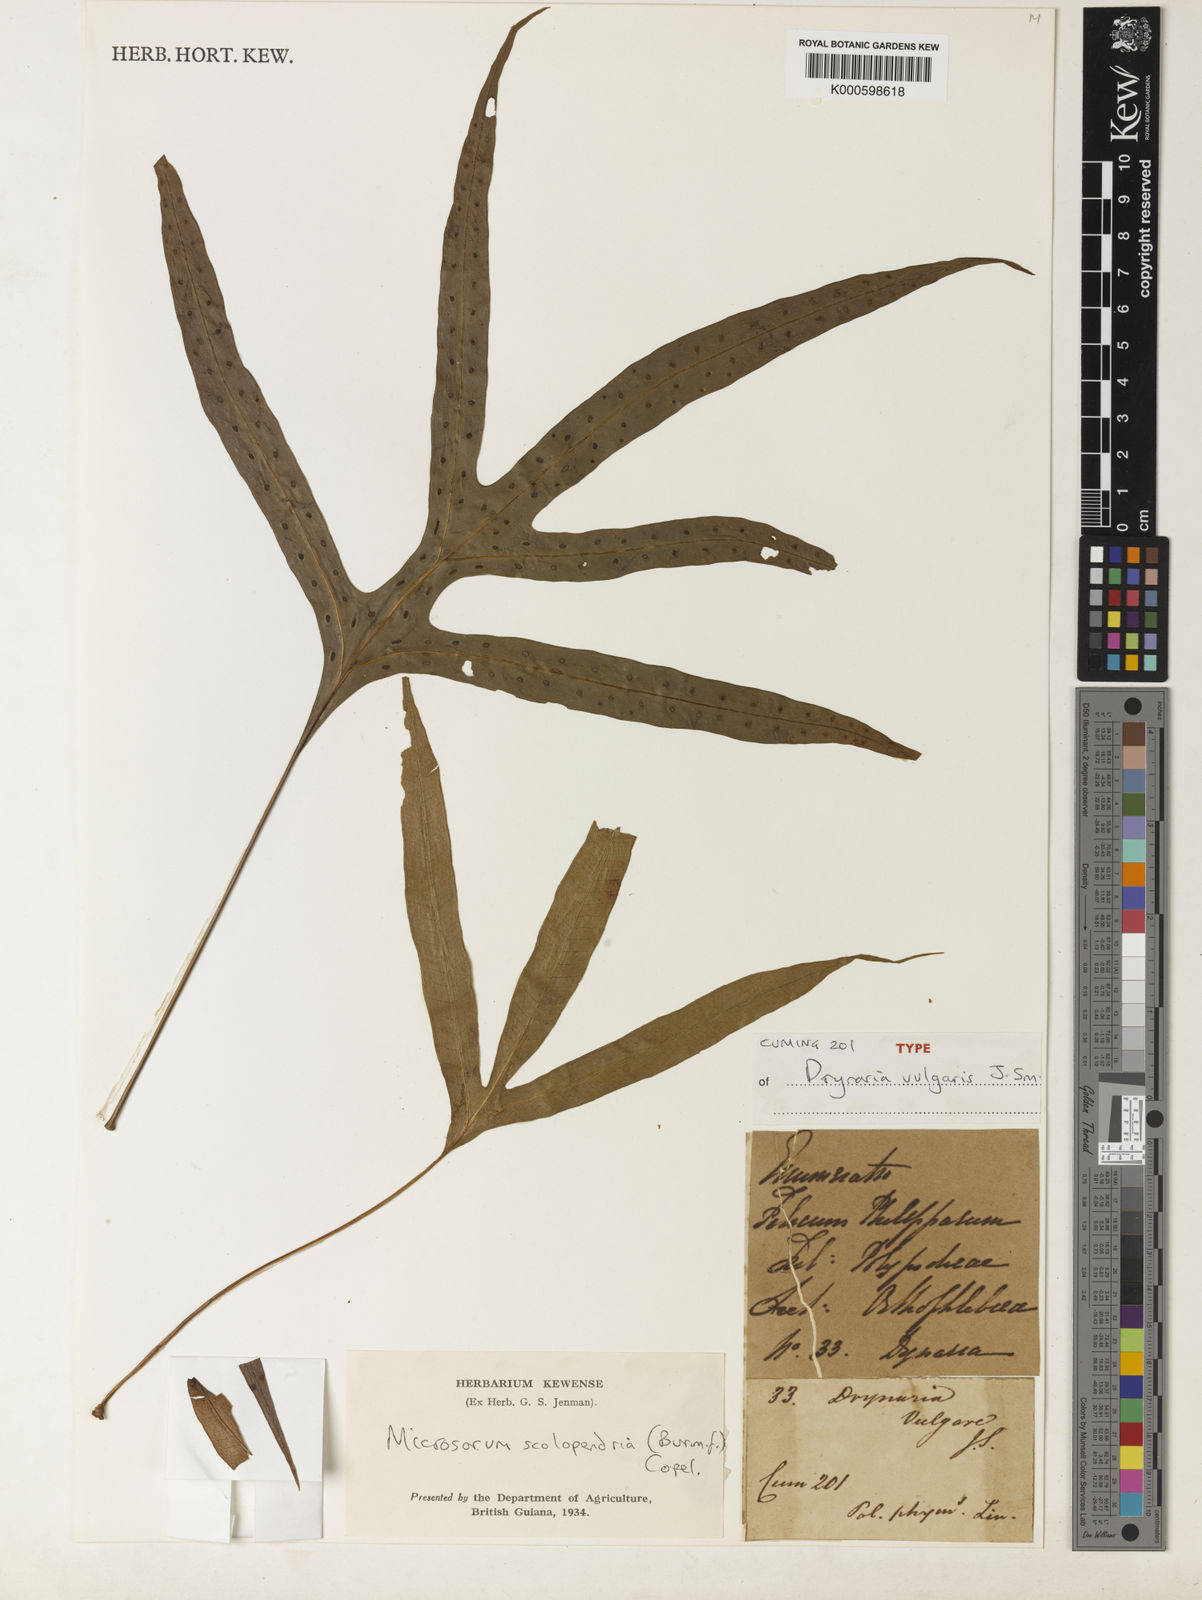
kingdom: Plantae
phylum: Tracheophyta
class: Polypodiopsida
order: Polypodiales
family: Polypodiaceae
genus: Microsorum
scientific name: Microsorum scolopendria
